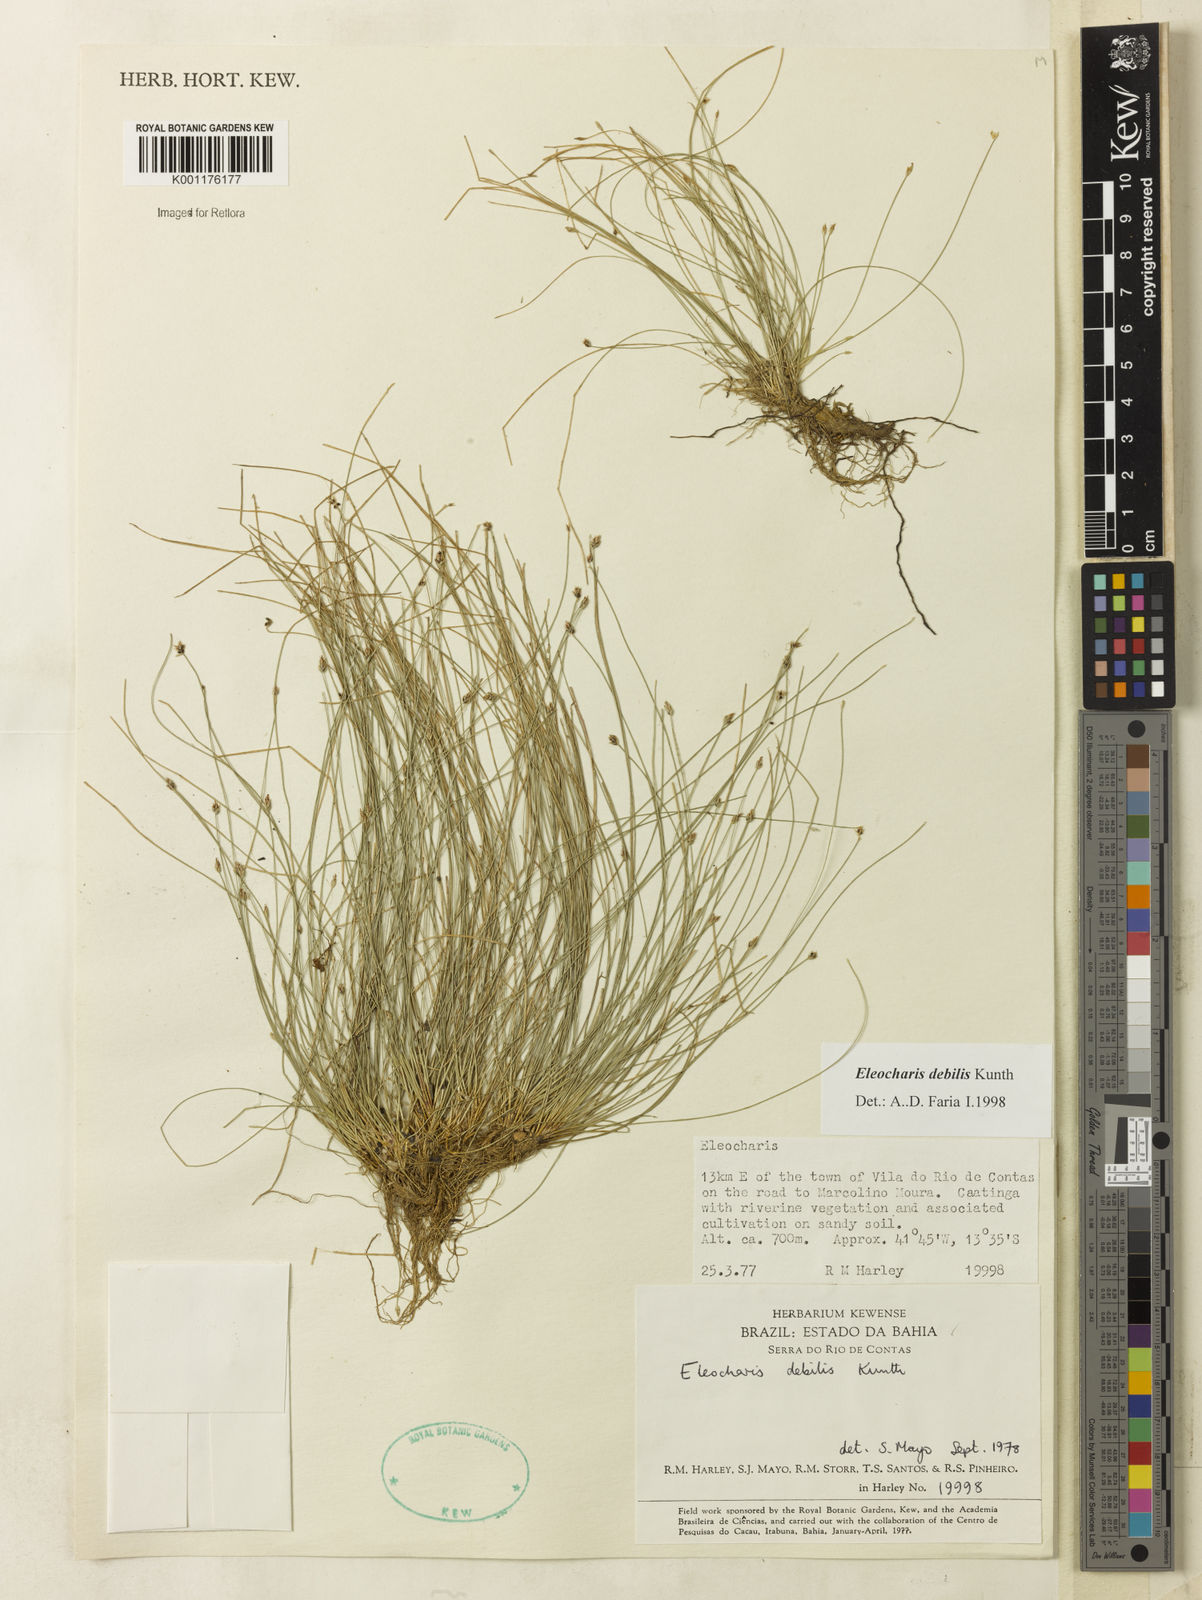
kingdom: Plantae
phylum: Tracheophyta
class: Liliopsida
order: Poales
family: Cyperaceae
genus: Eleocharis
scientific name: Eleocharis maculosa
